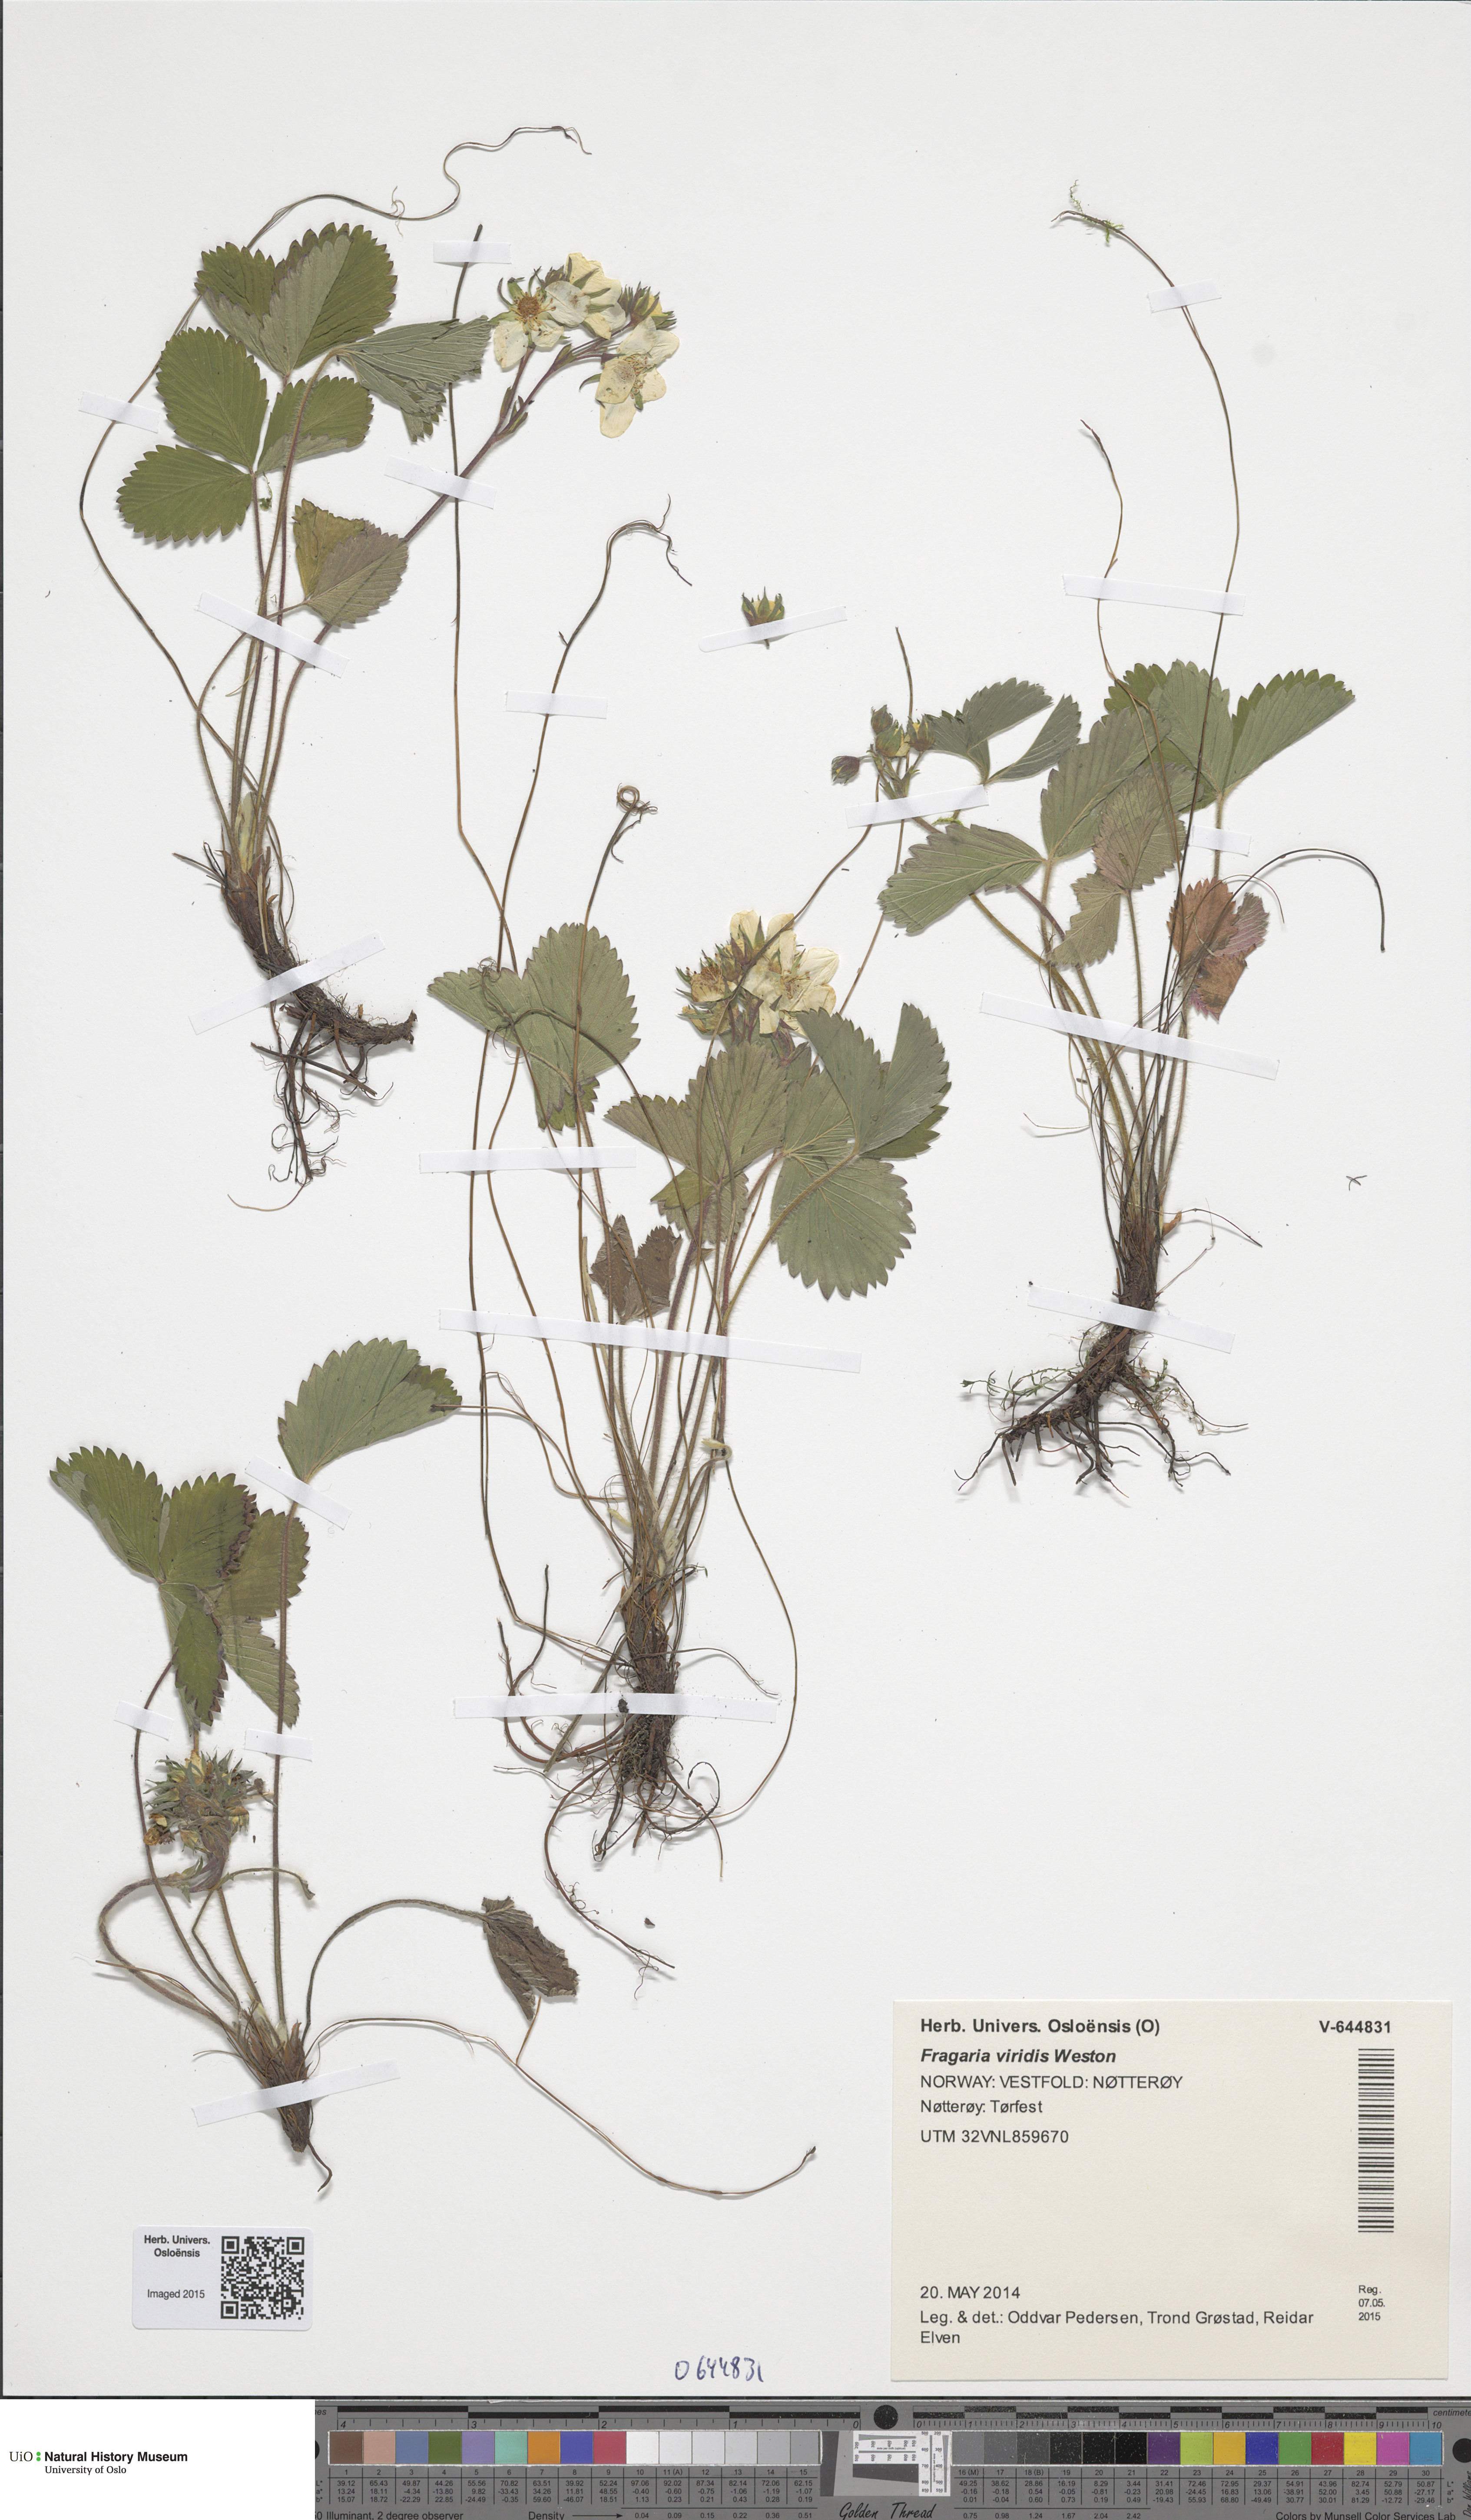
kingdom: Plantae
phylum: Tracheophyta
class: Magnoliopsida
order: Rosales
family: Rosaceae
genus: Fragaria
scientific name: Fragaria viridis
